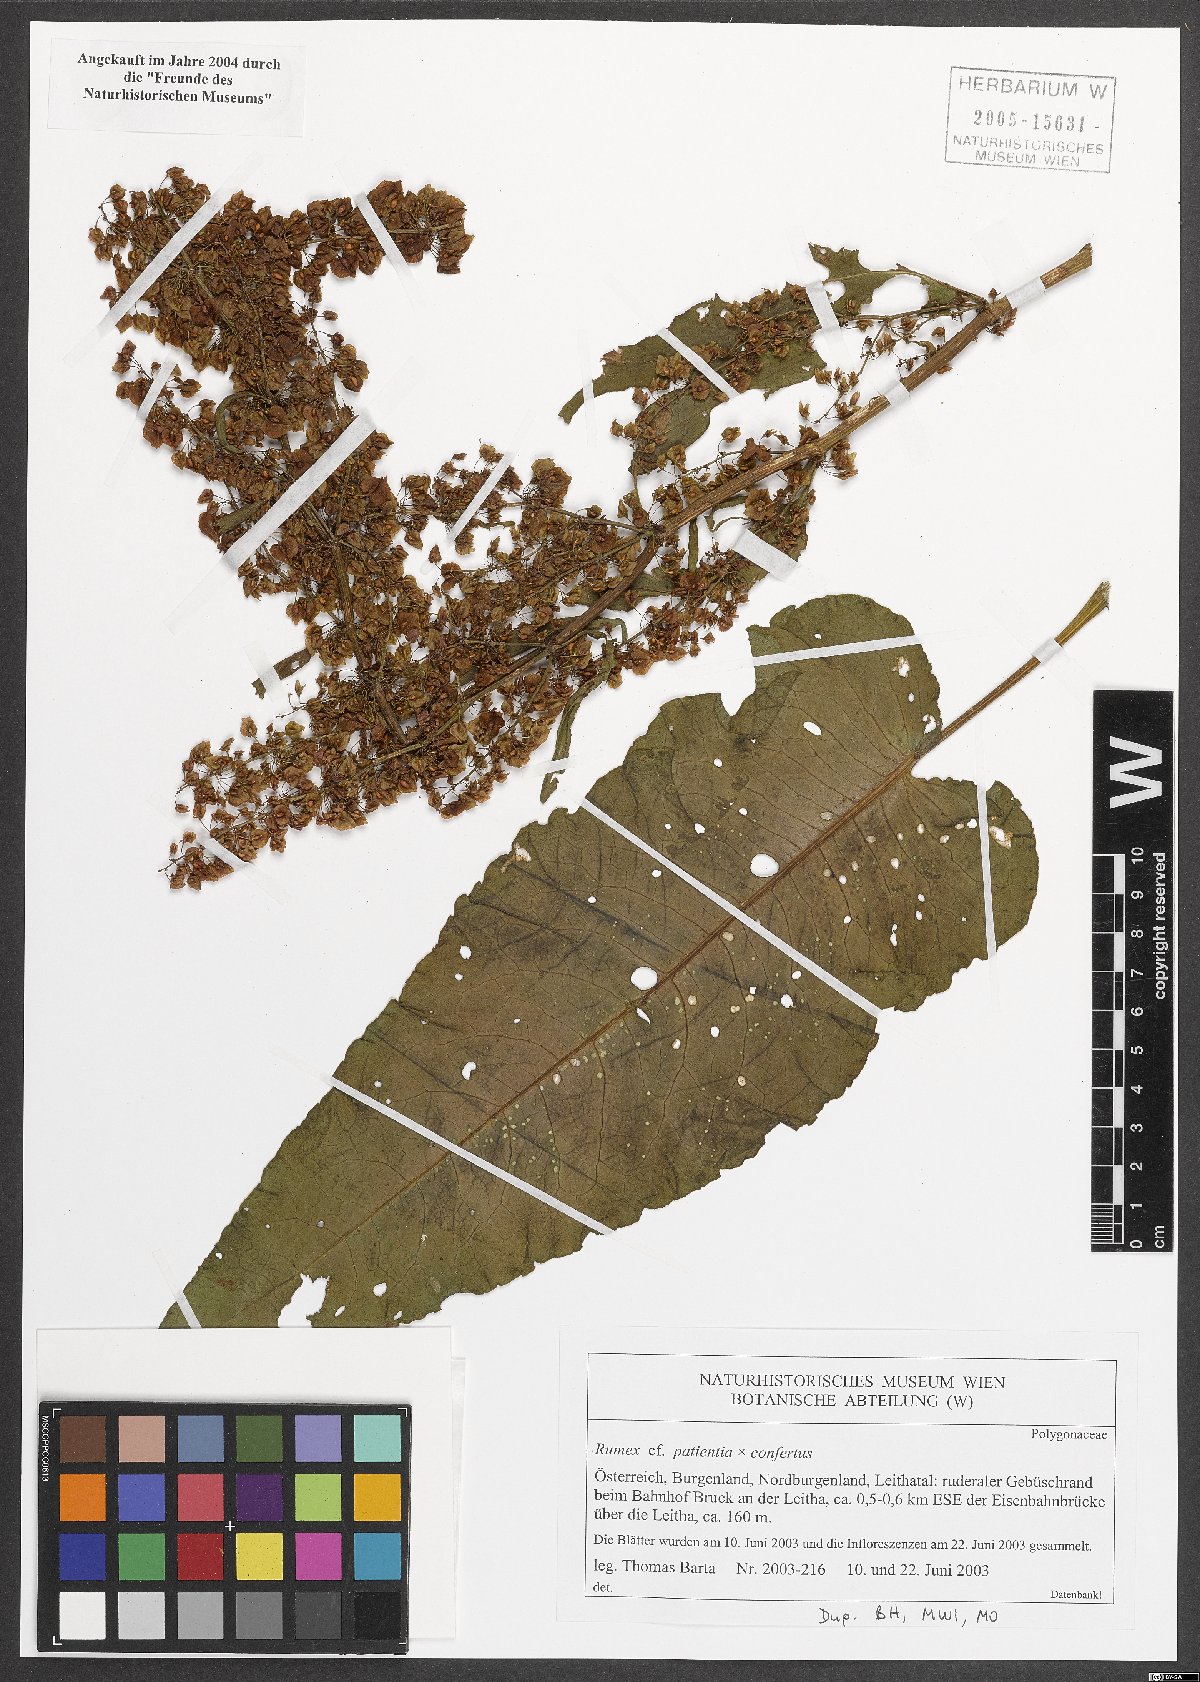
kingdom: Plantae
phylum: Tracheophyta
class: Magnoliopsida
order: Caryophyllales
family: Polygonaceae
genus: Rumex
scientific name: Rumex
